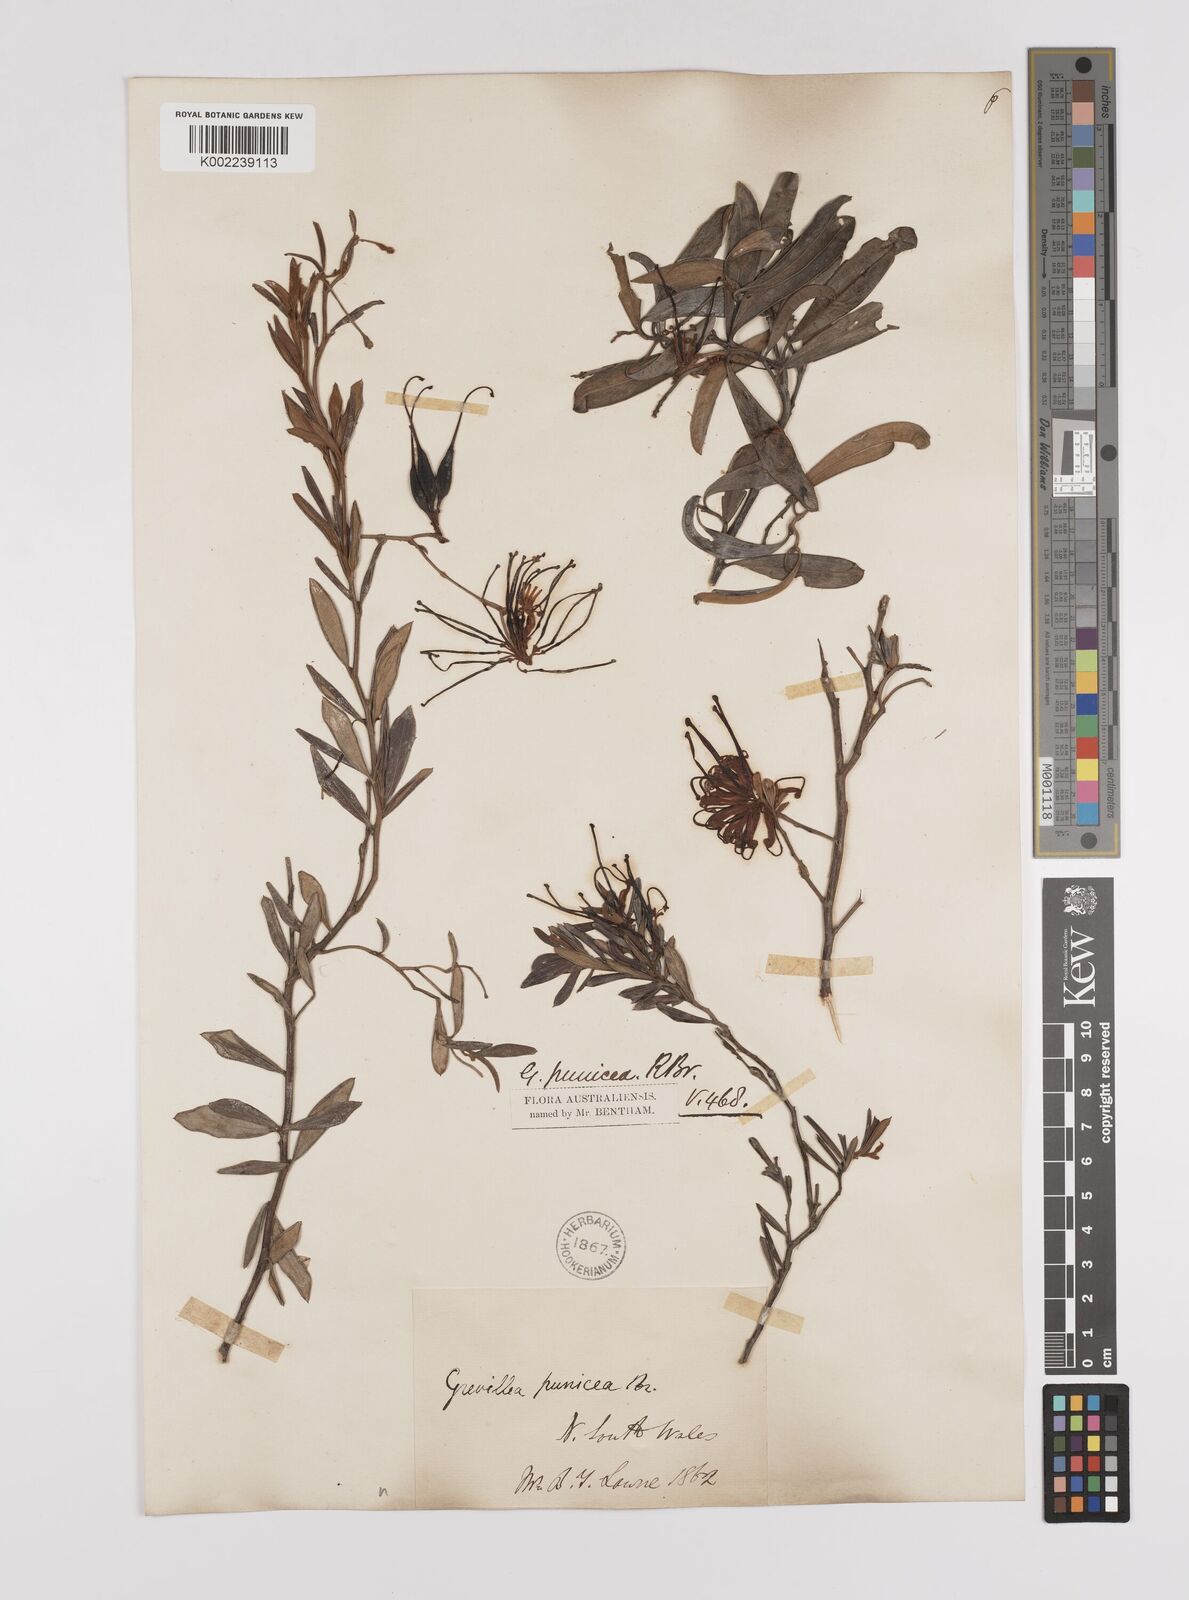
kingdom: Plantae
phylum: Tracheophyta
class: Magnoliopsida
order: Proteales
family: Proteaceae
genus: Grevillea
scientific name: Grevillea speciosa
